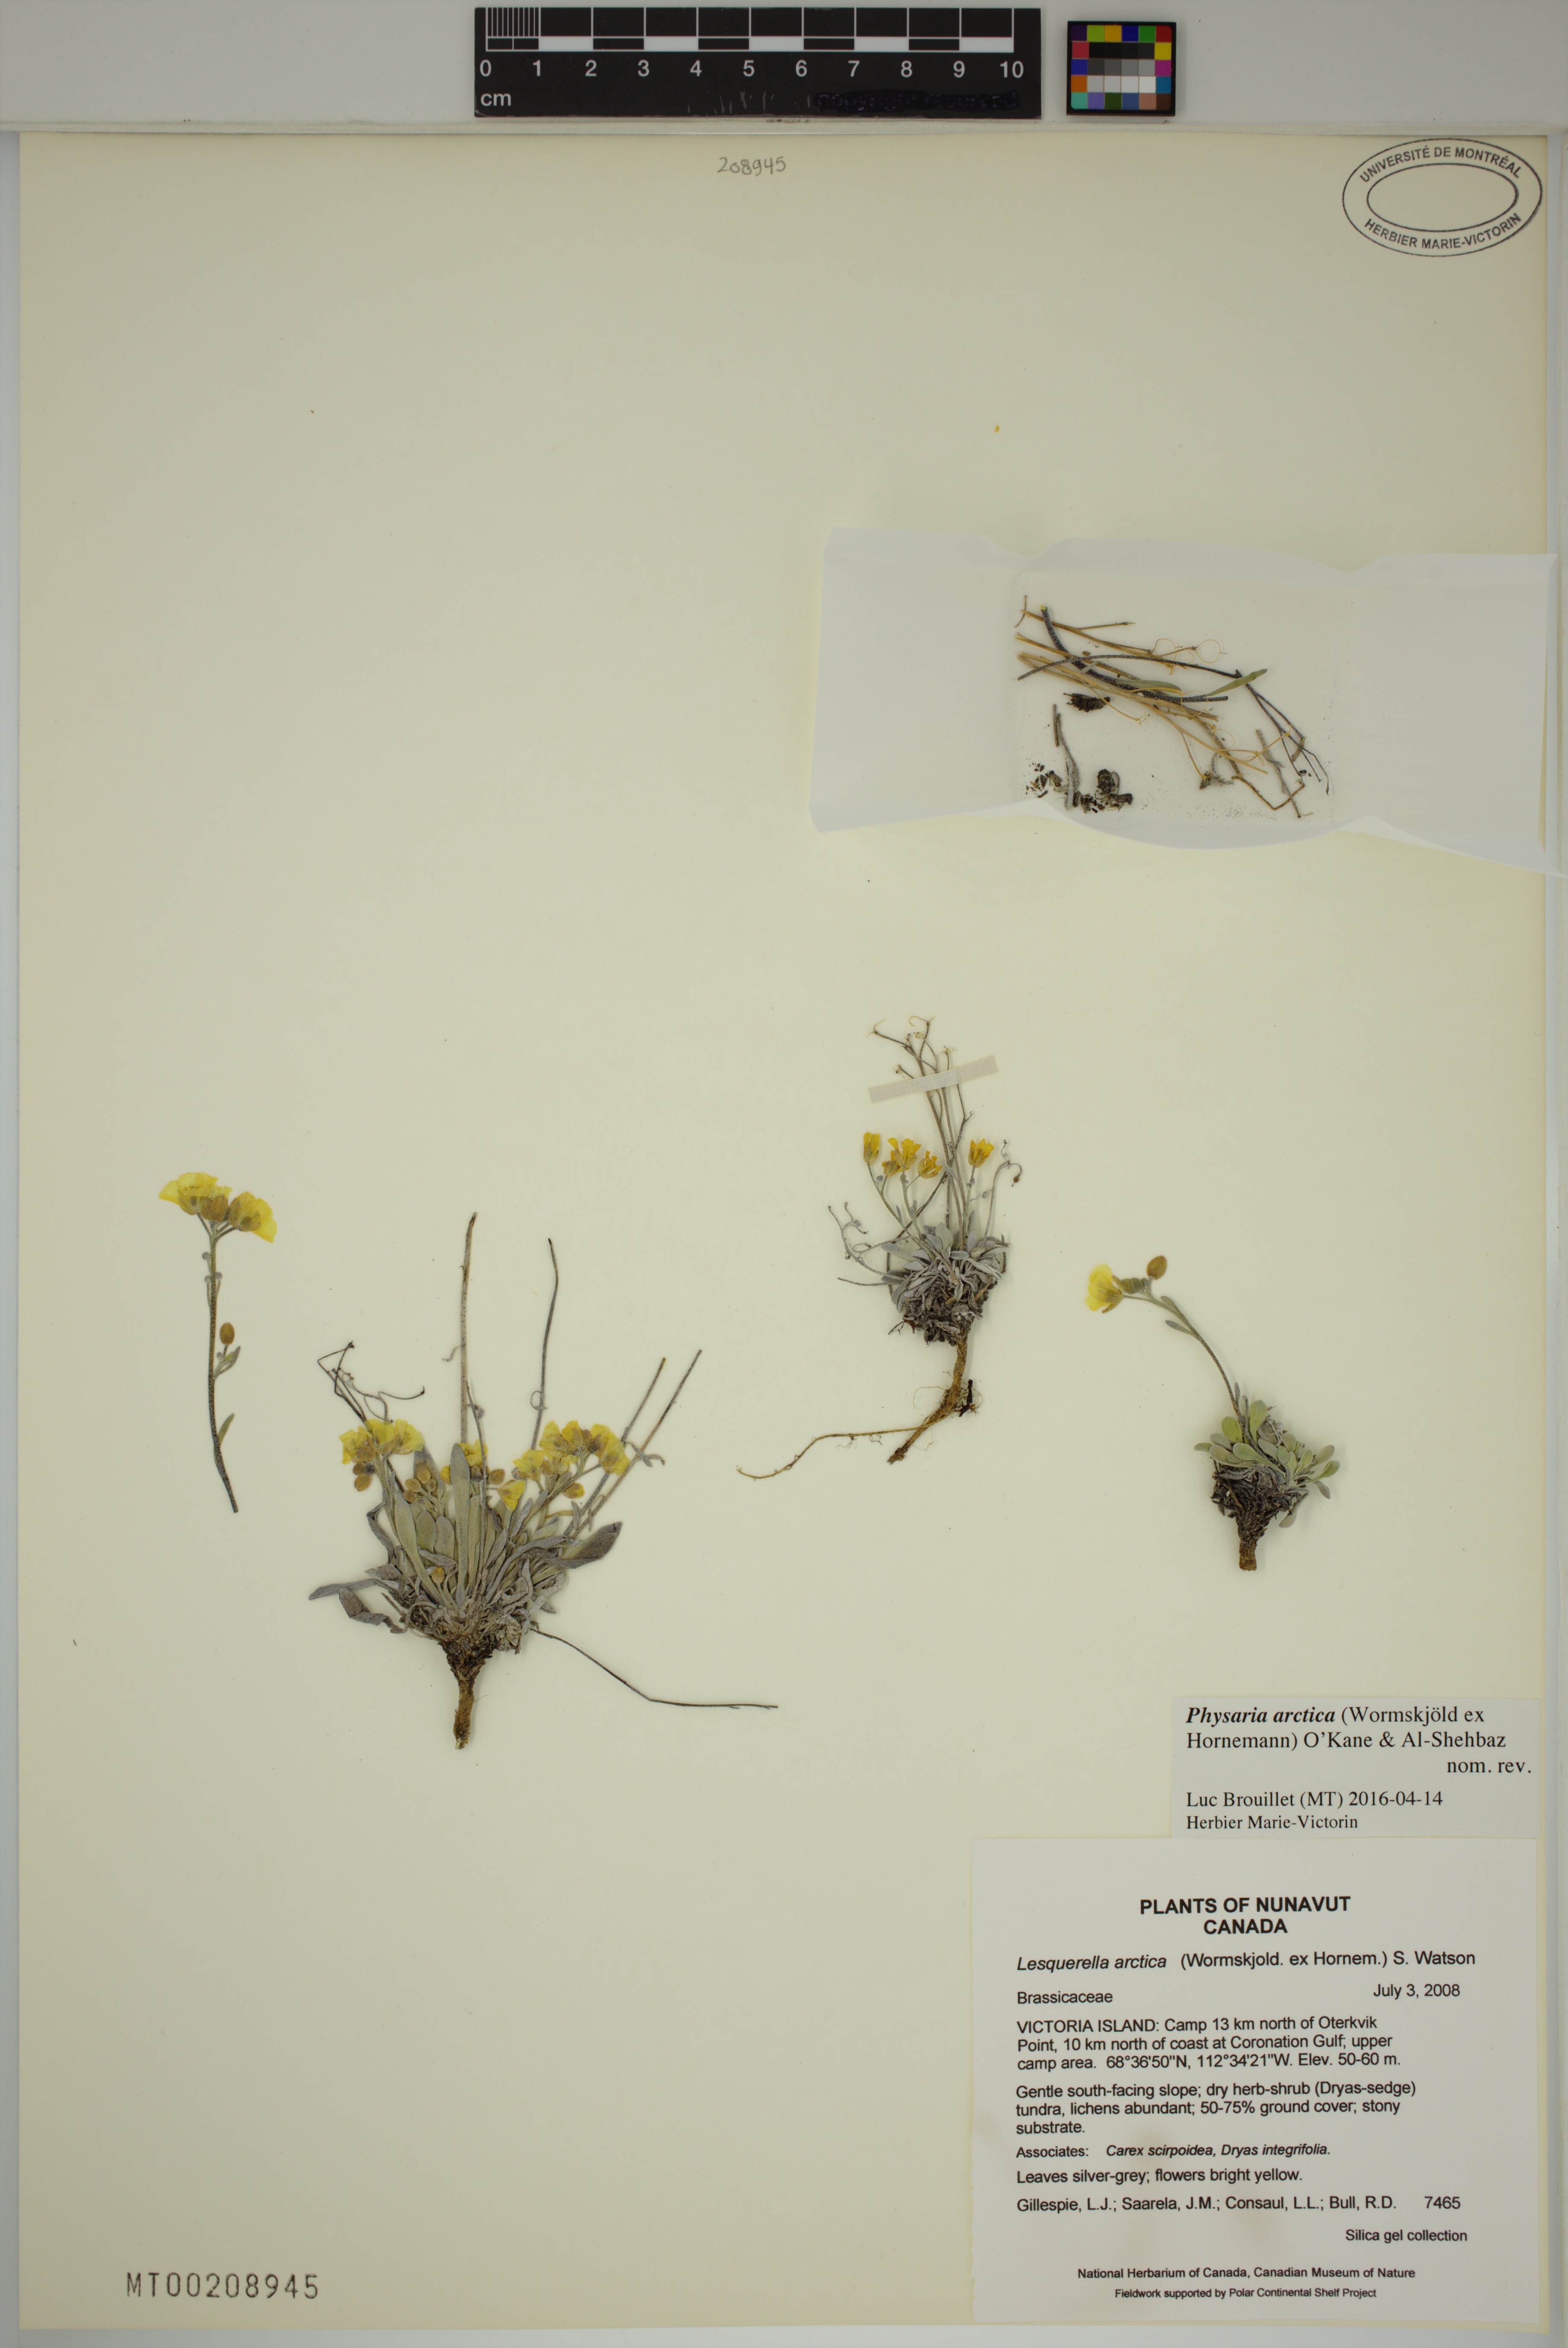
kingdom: Plantae
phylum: Tracheophyta
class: Magnoliopsida
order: Brassicales
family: Brassicaceae
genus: Physaria
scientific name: Physaria arctica
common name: Arctic bladderpod
